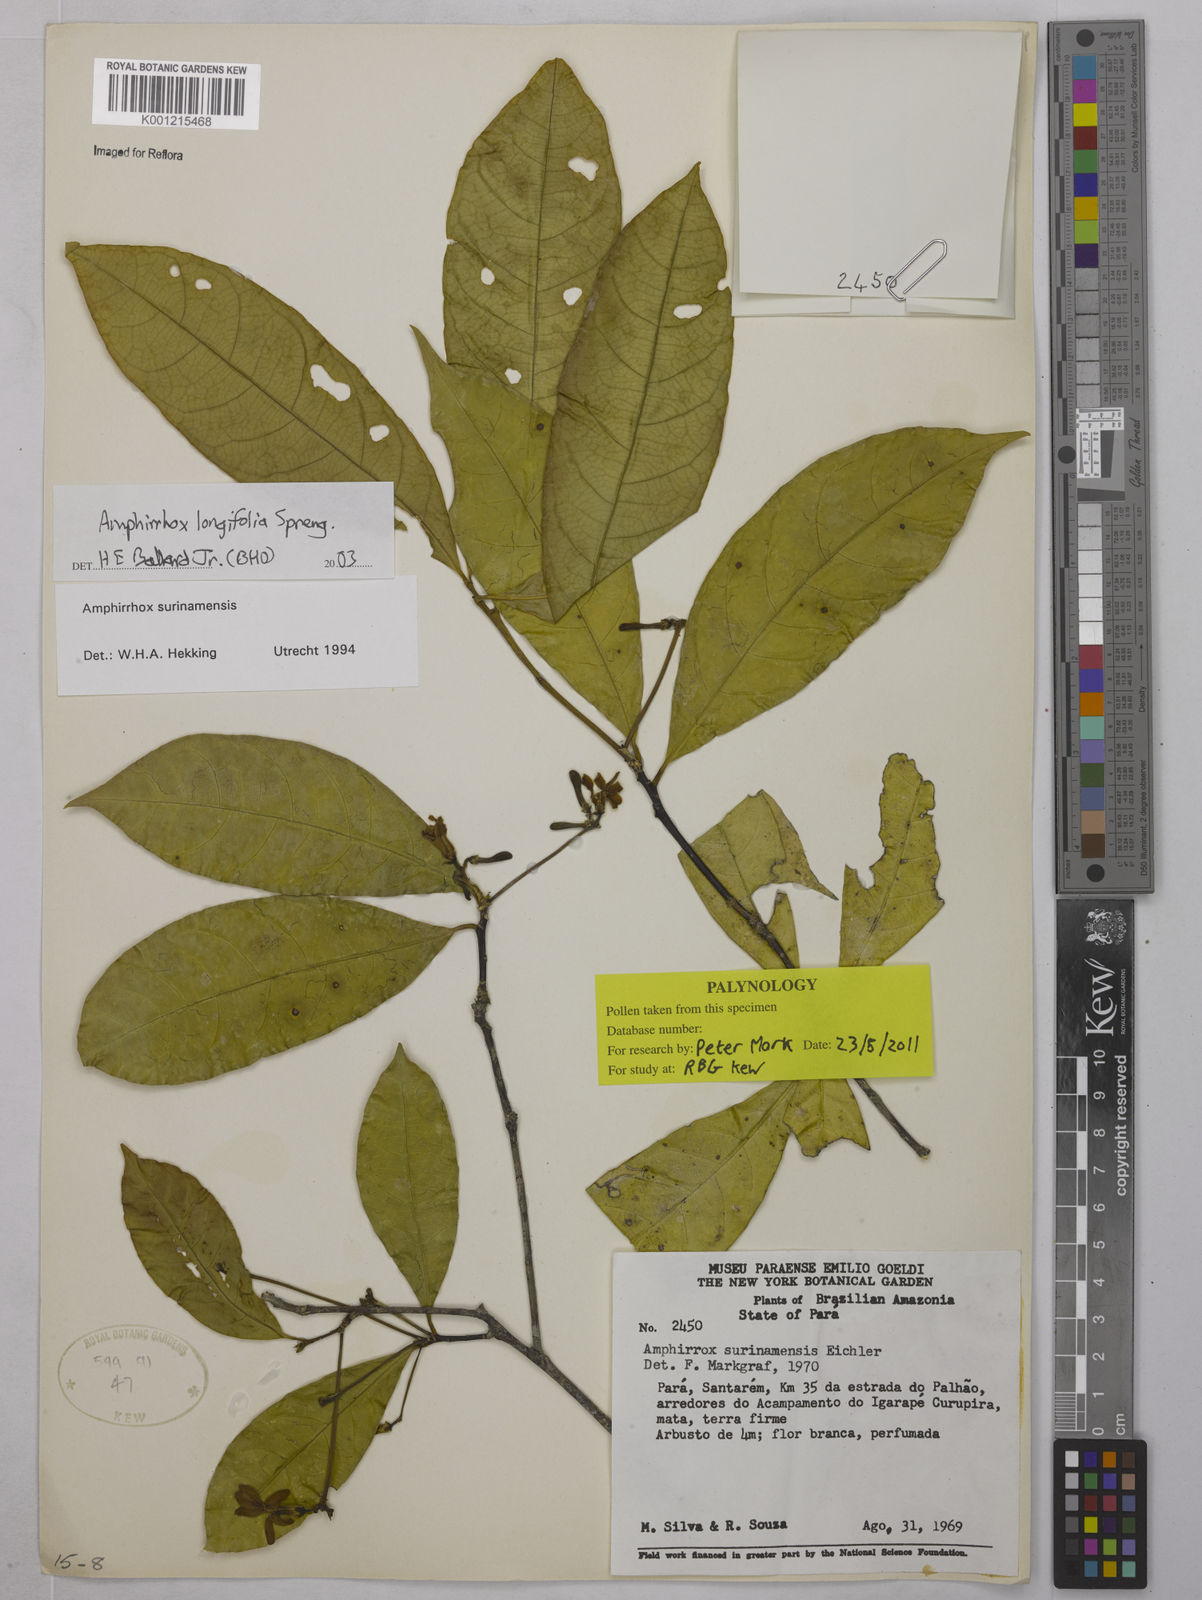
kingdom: Plantae
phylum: Tracheophyta
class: Magnoliopsida
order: Malpighiales
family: Violaceae
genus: Amphirrhox
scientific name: Amphirrhox longifolia
